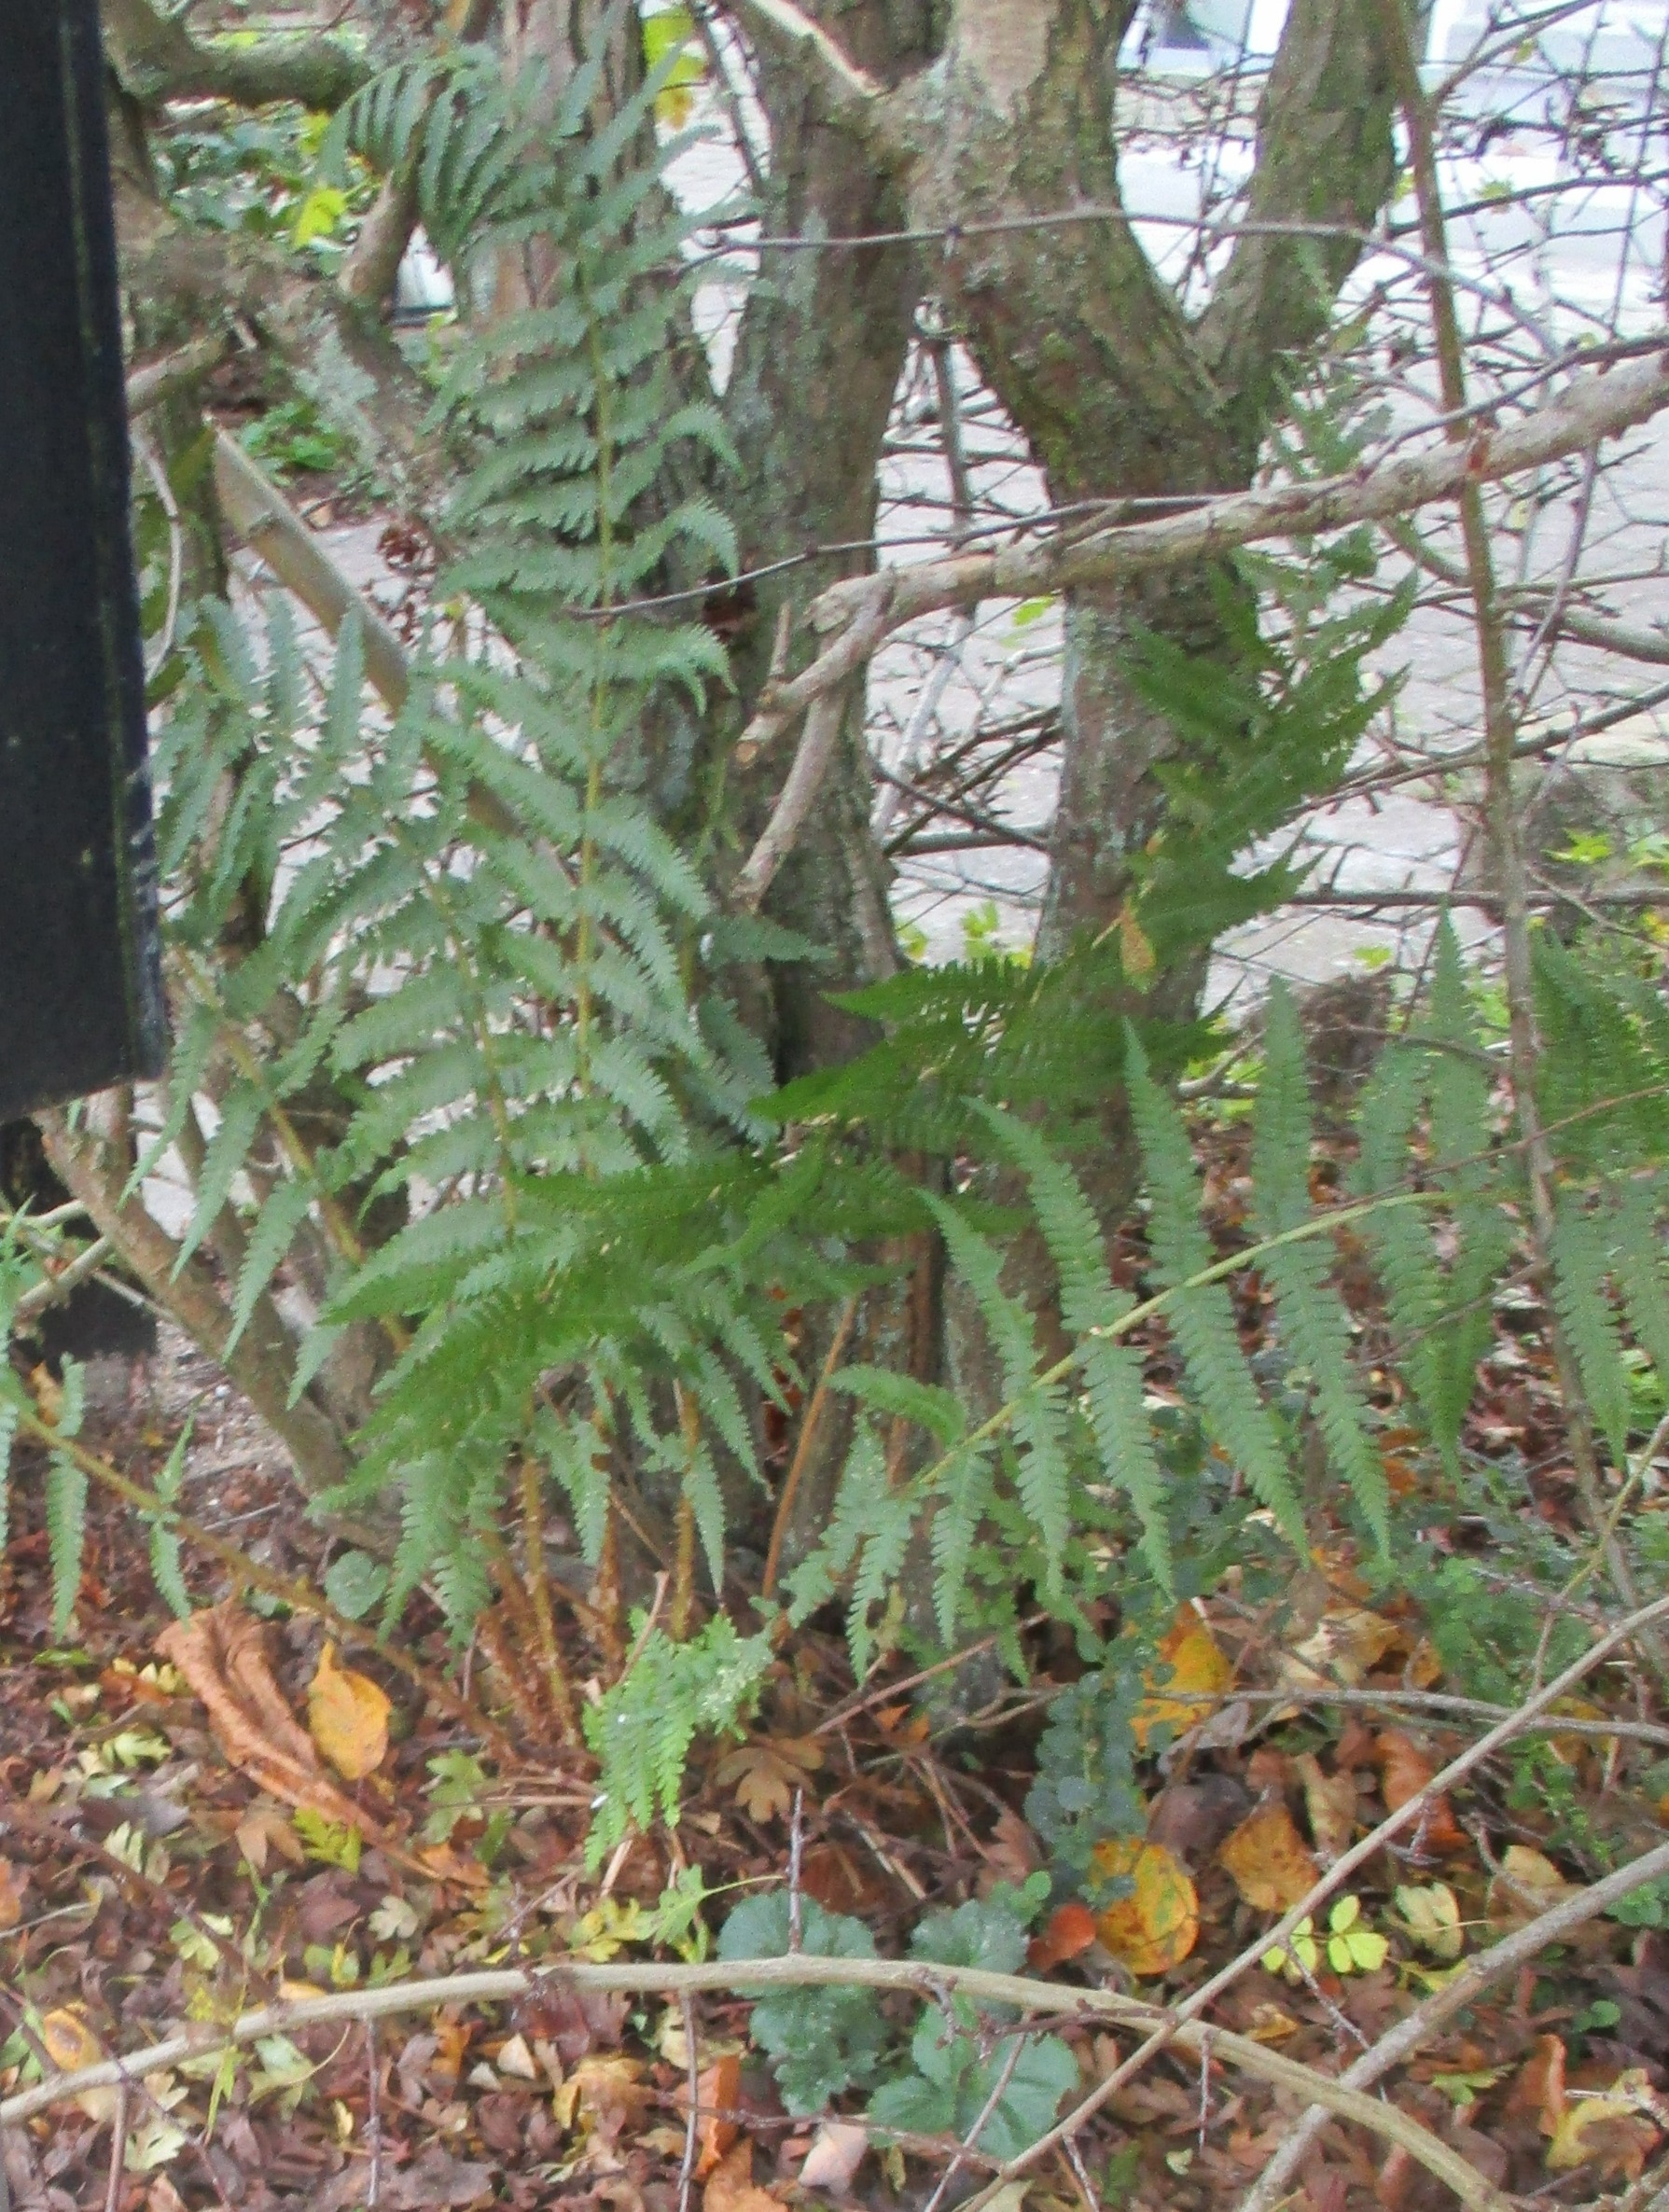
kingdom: Plantae
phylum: Tracheophyta
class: Polypodiopsida
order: Polypodiales
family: Dryopteridaceae
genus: Dryopteris
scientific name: Dryopteris filix-mas
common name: Almindelig mangeløv
